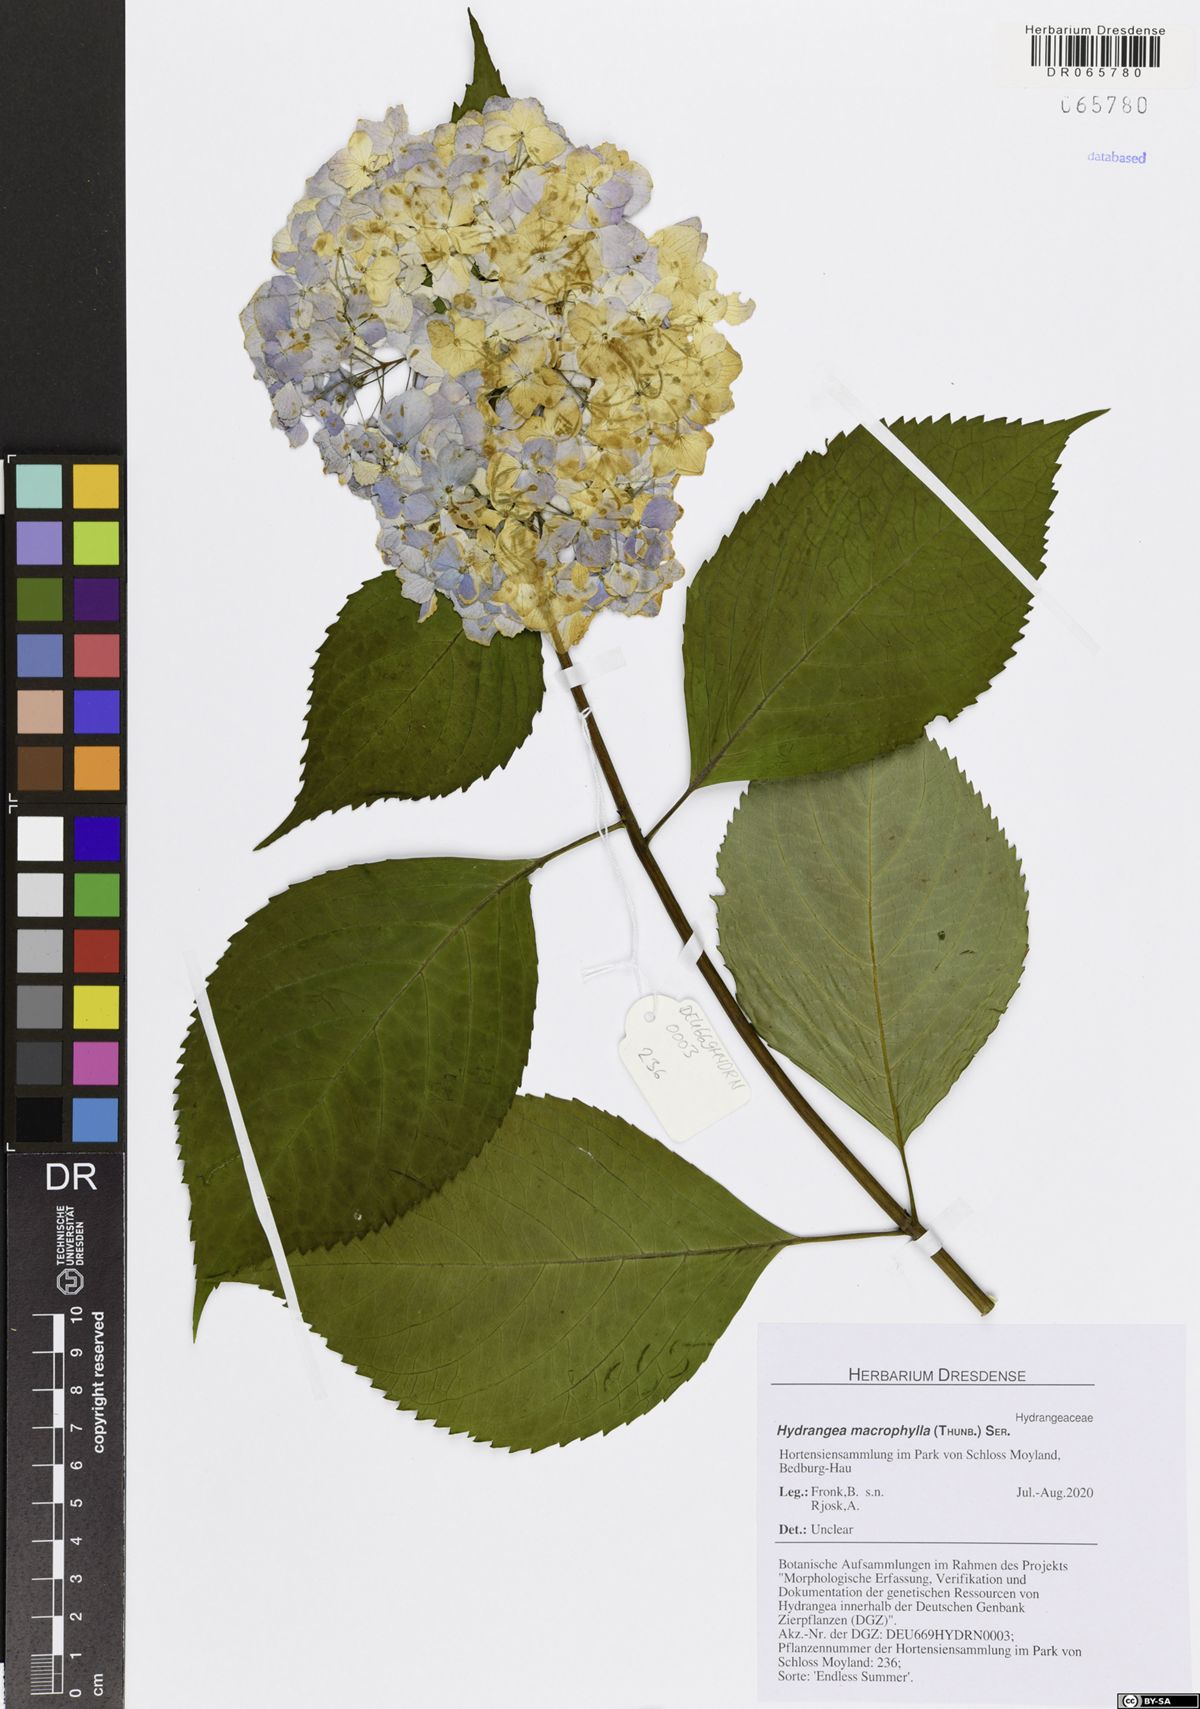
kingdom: Plantae
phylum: Tracheophyta
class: Magnoliopsida
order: Cornales
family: Hydrangeaceae
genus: Hydrangea
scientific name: Hydrangea macrophylla
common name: Hydrangea
